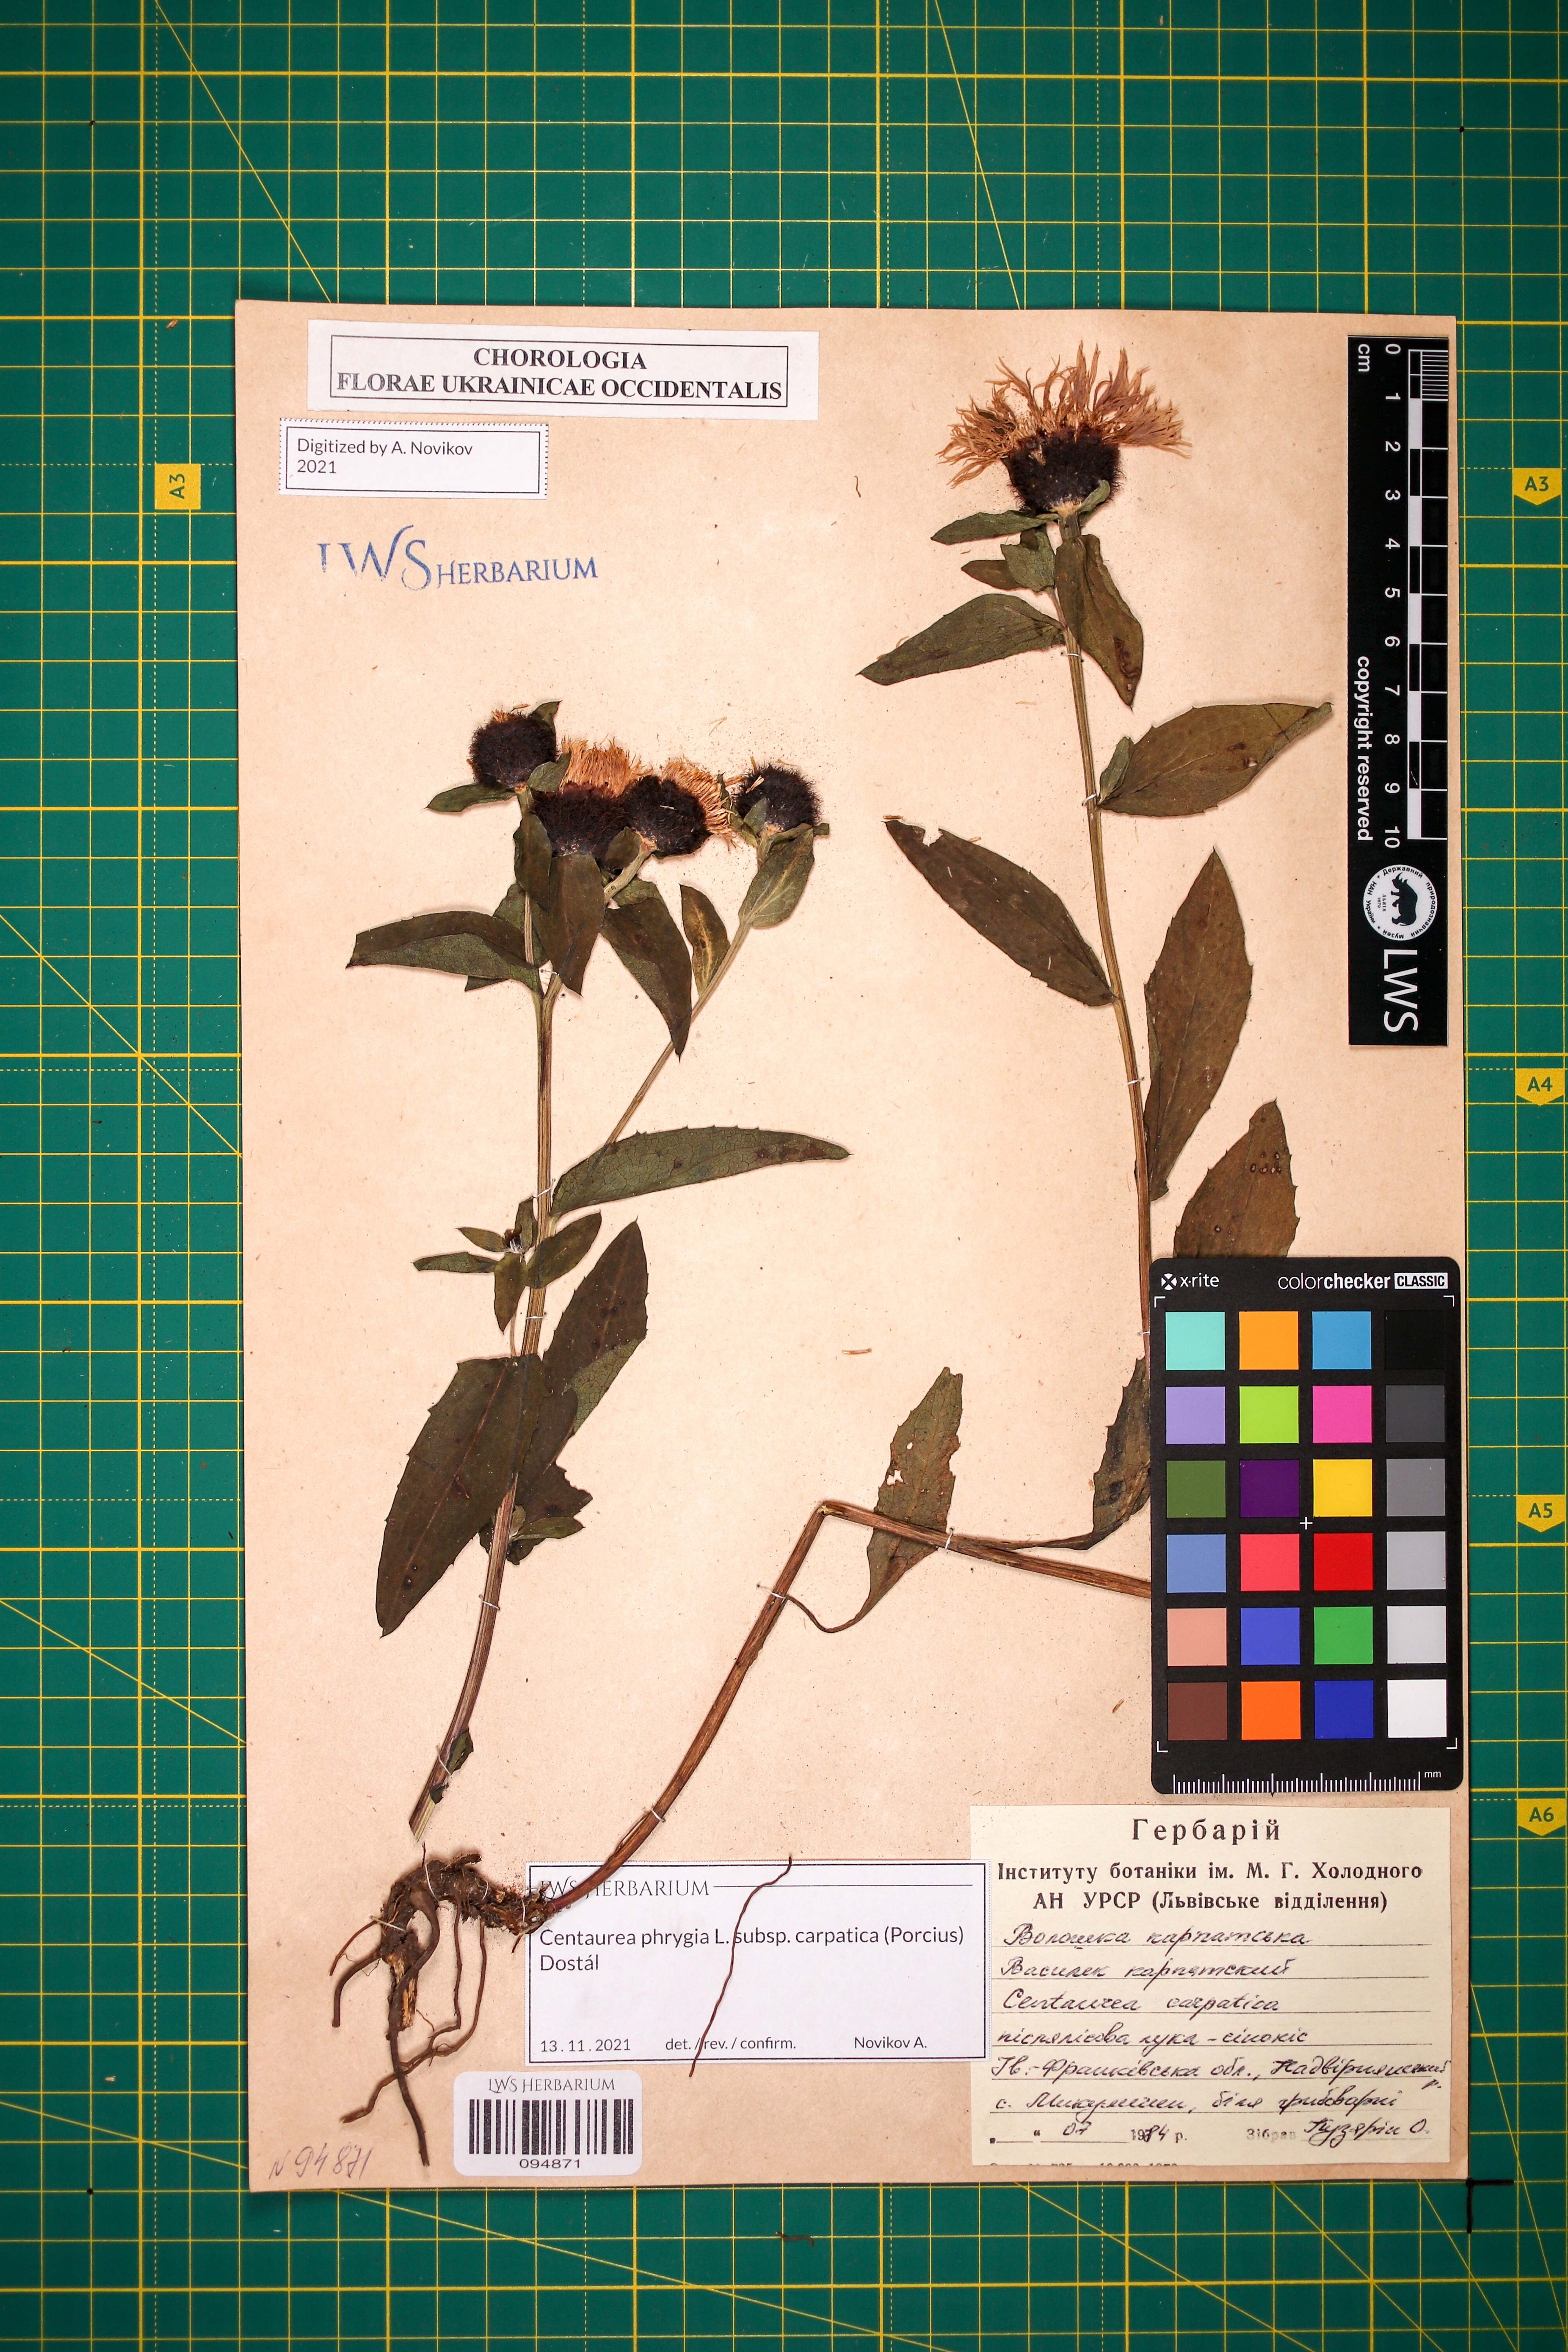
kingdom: Plantae
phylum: Tracheophyta
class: Magnoliopsida
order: Asterales
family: Asteraceae
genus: Centaurea
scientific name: Centaurea phrygia
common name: Wig knapweed
